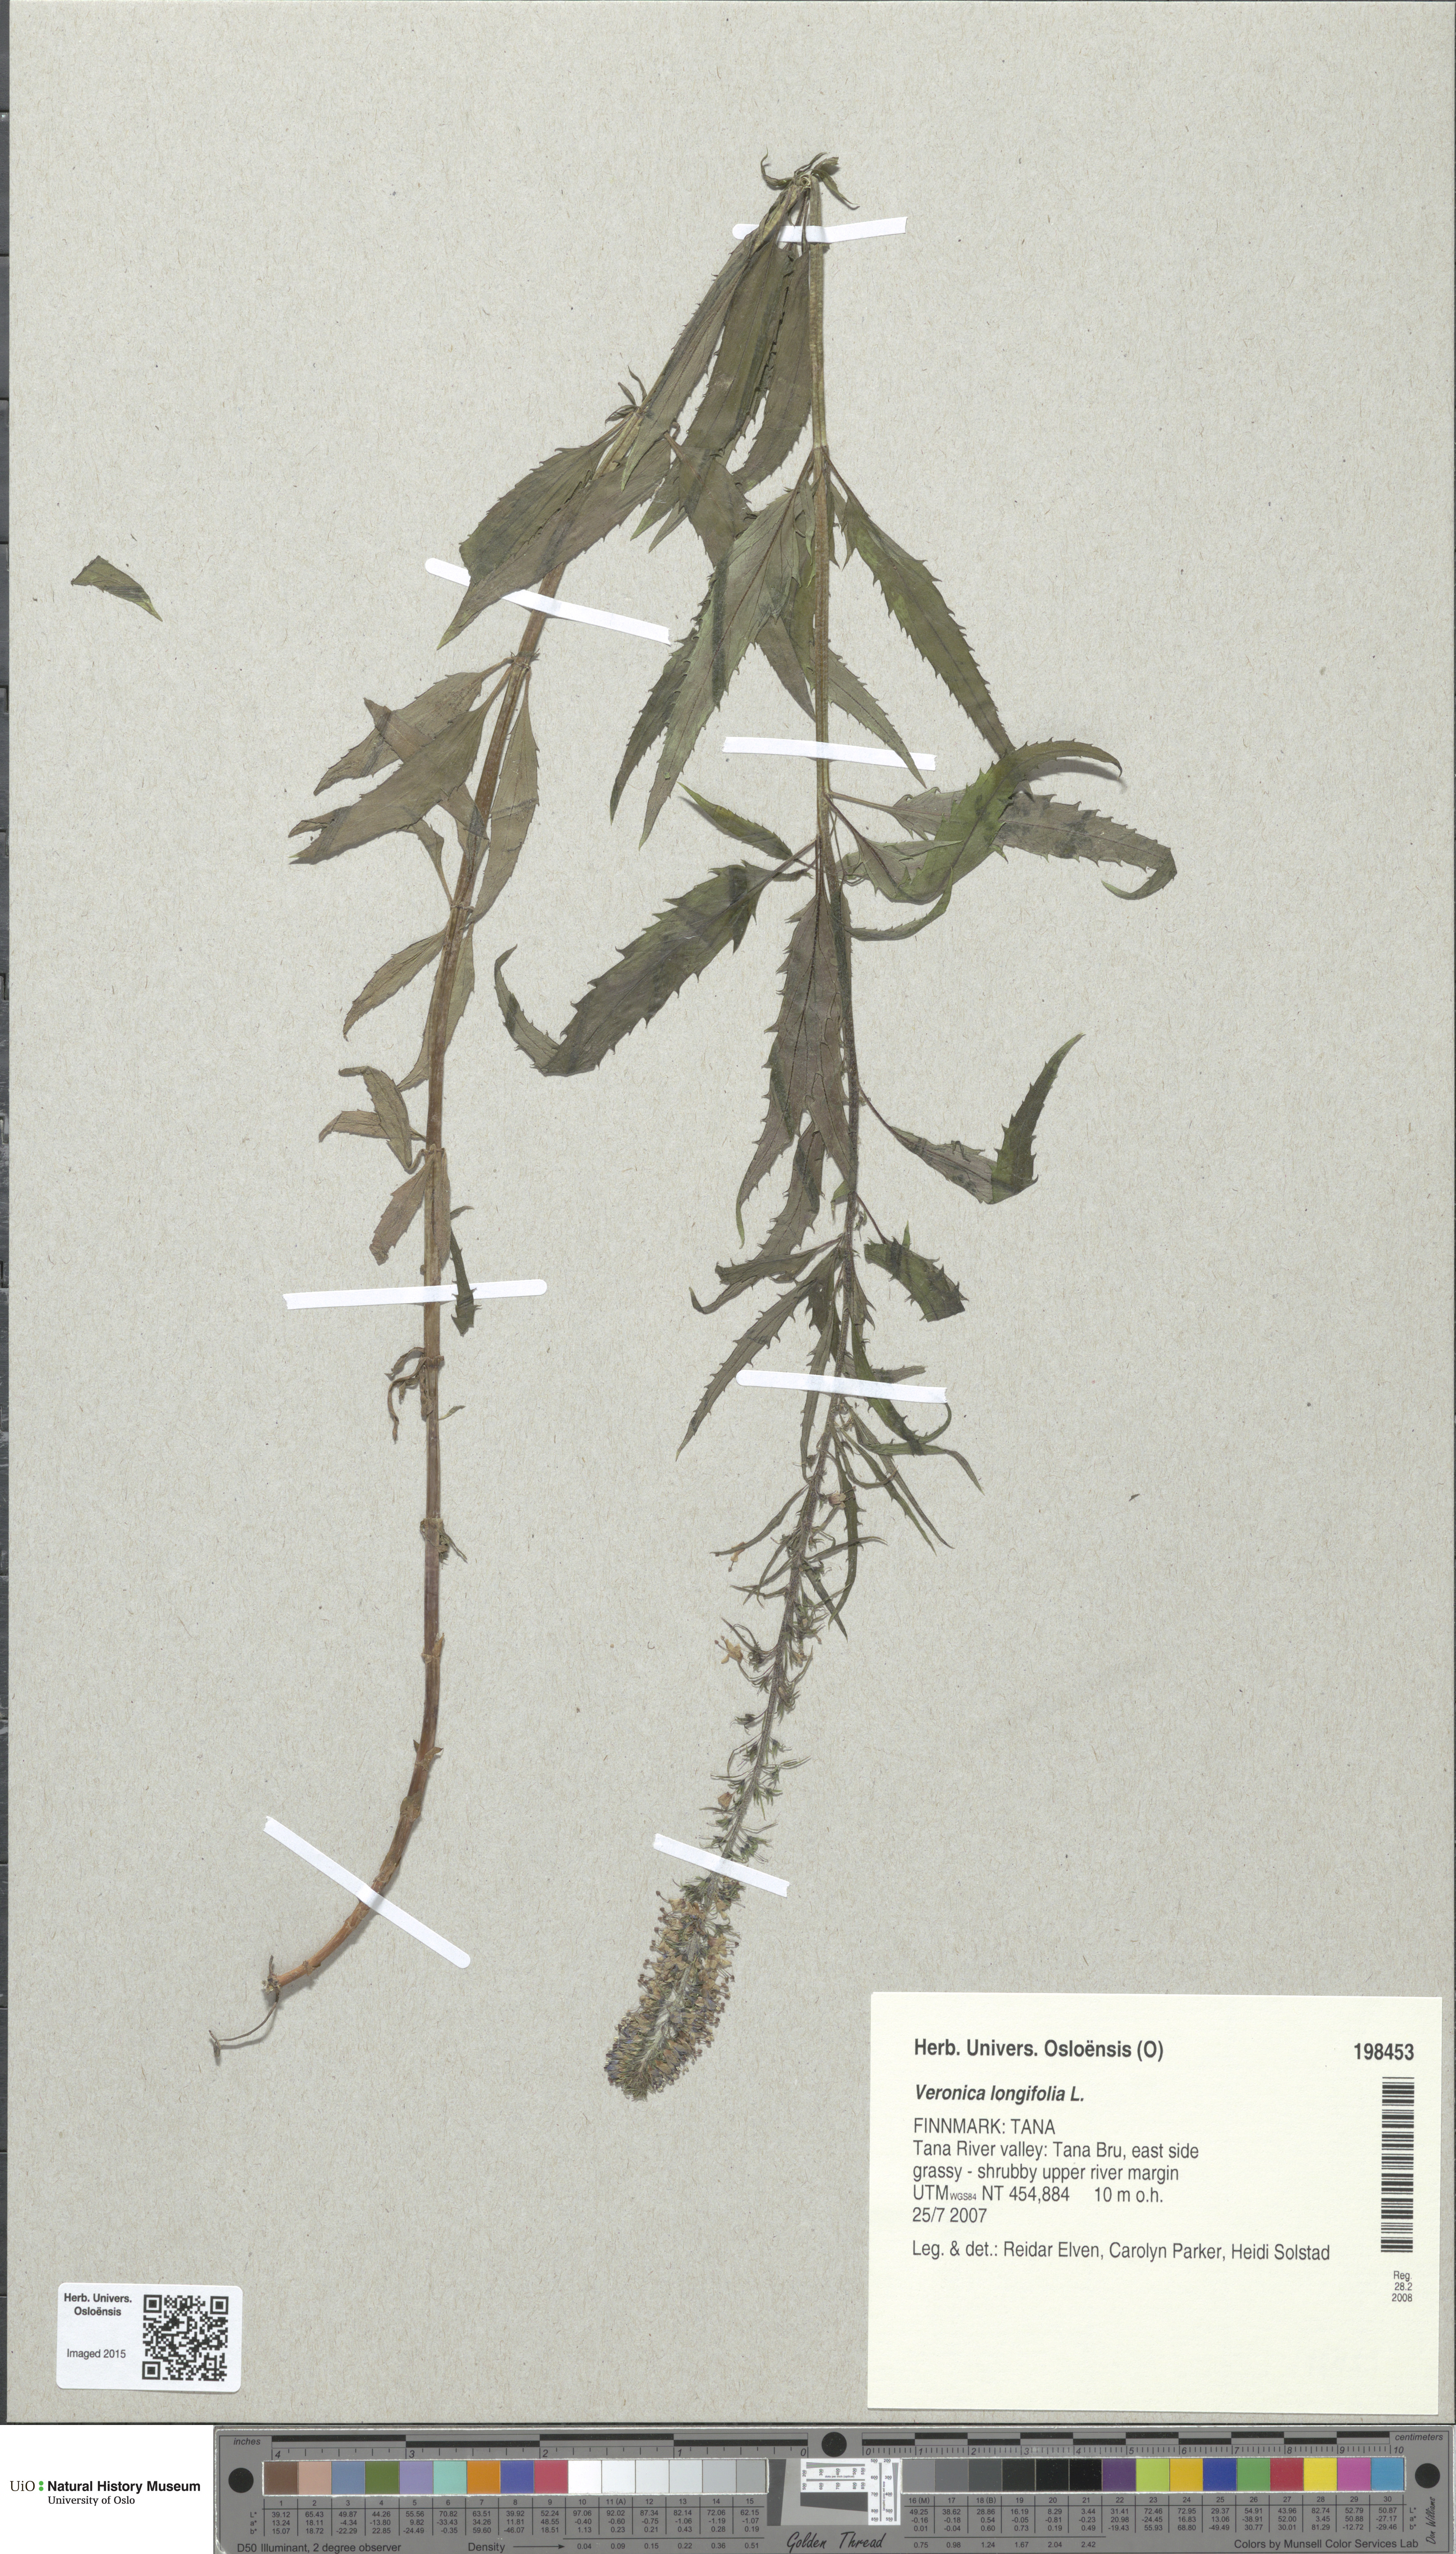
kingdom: Plantae
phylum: Tracheophyta
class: Magnoliopsida
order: Lamiales
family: Plantaginaceae
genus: Veronica
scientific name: Veronica longifolia
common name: Garden speedwell
